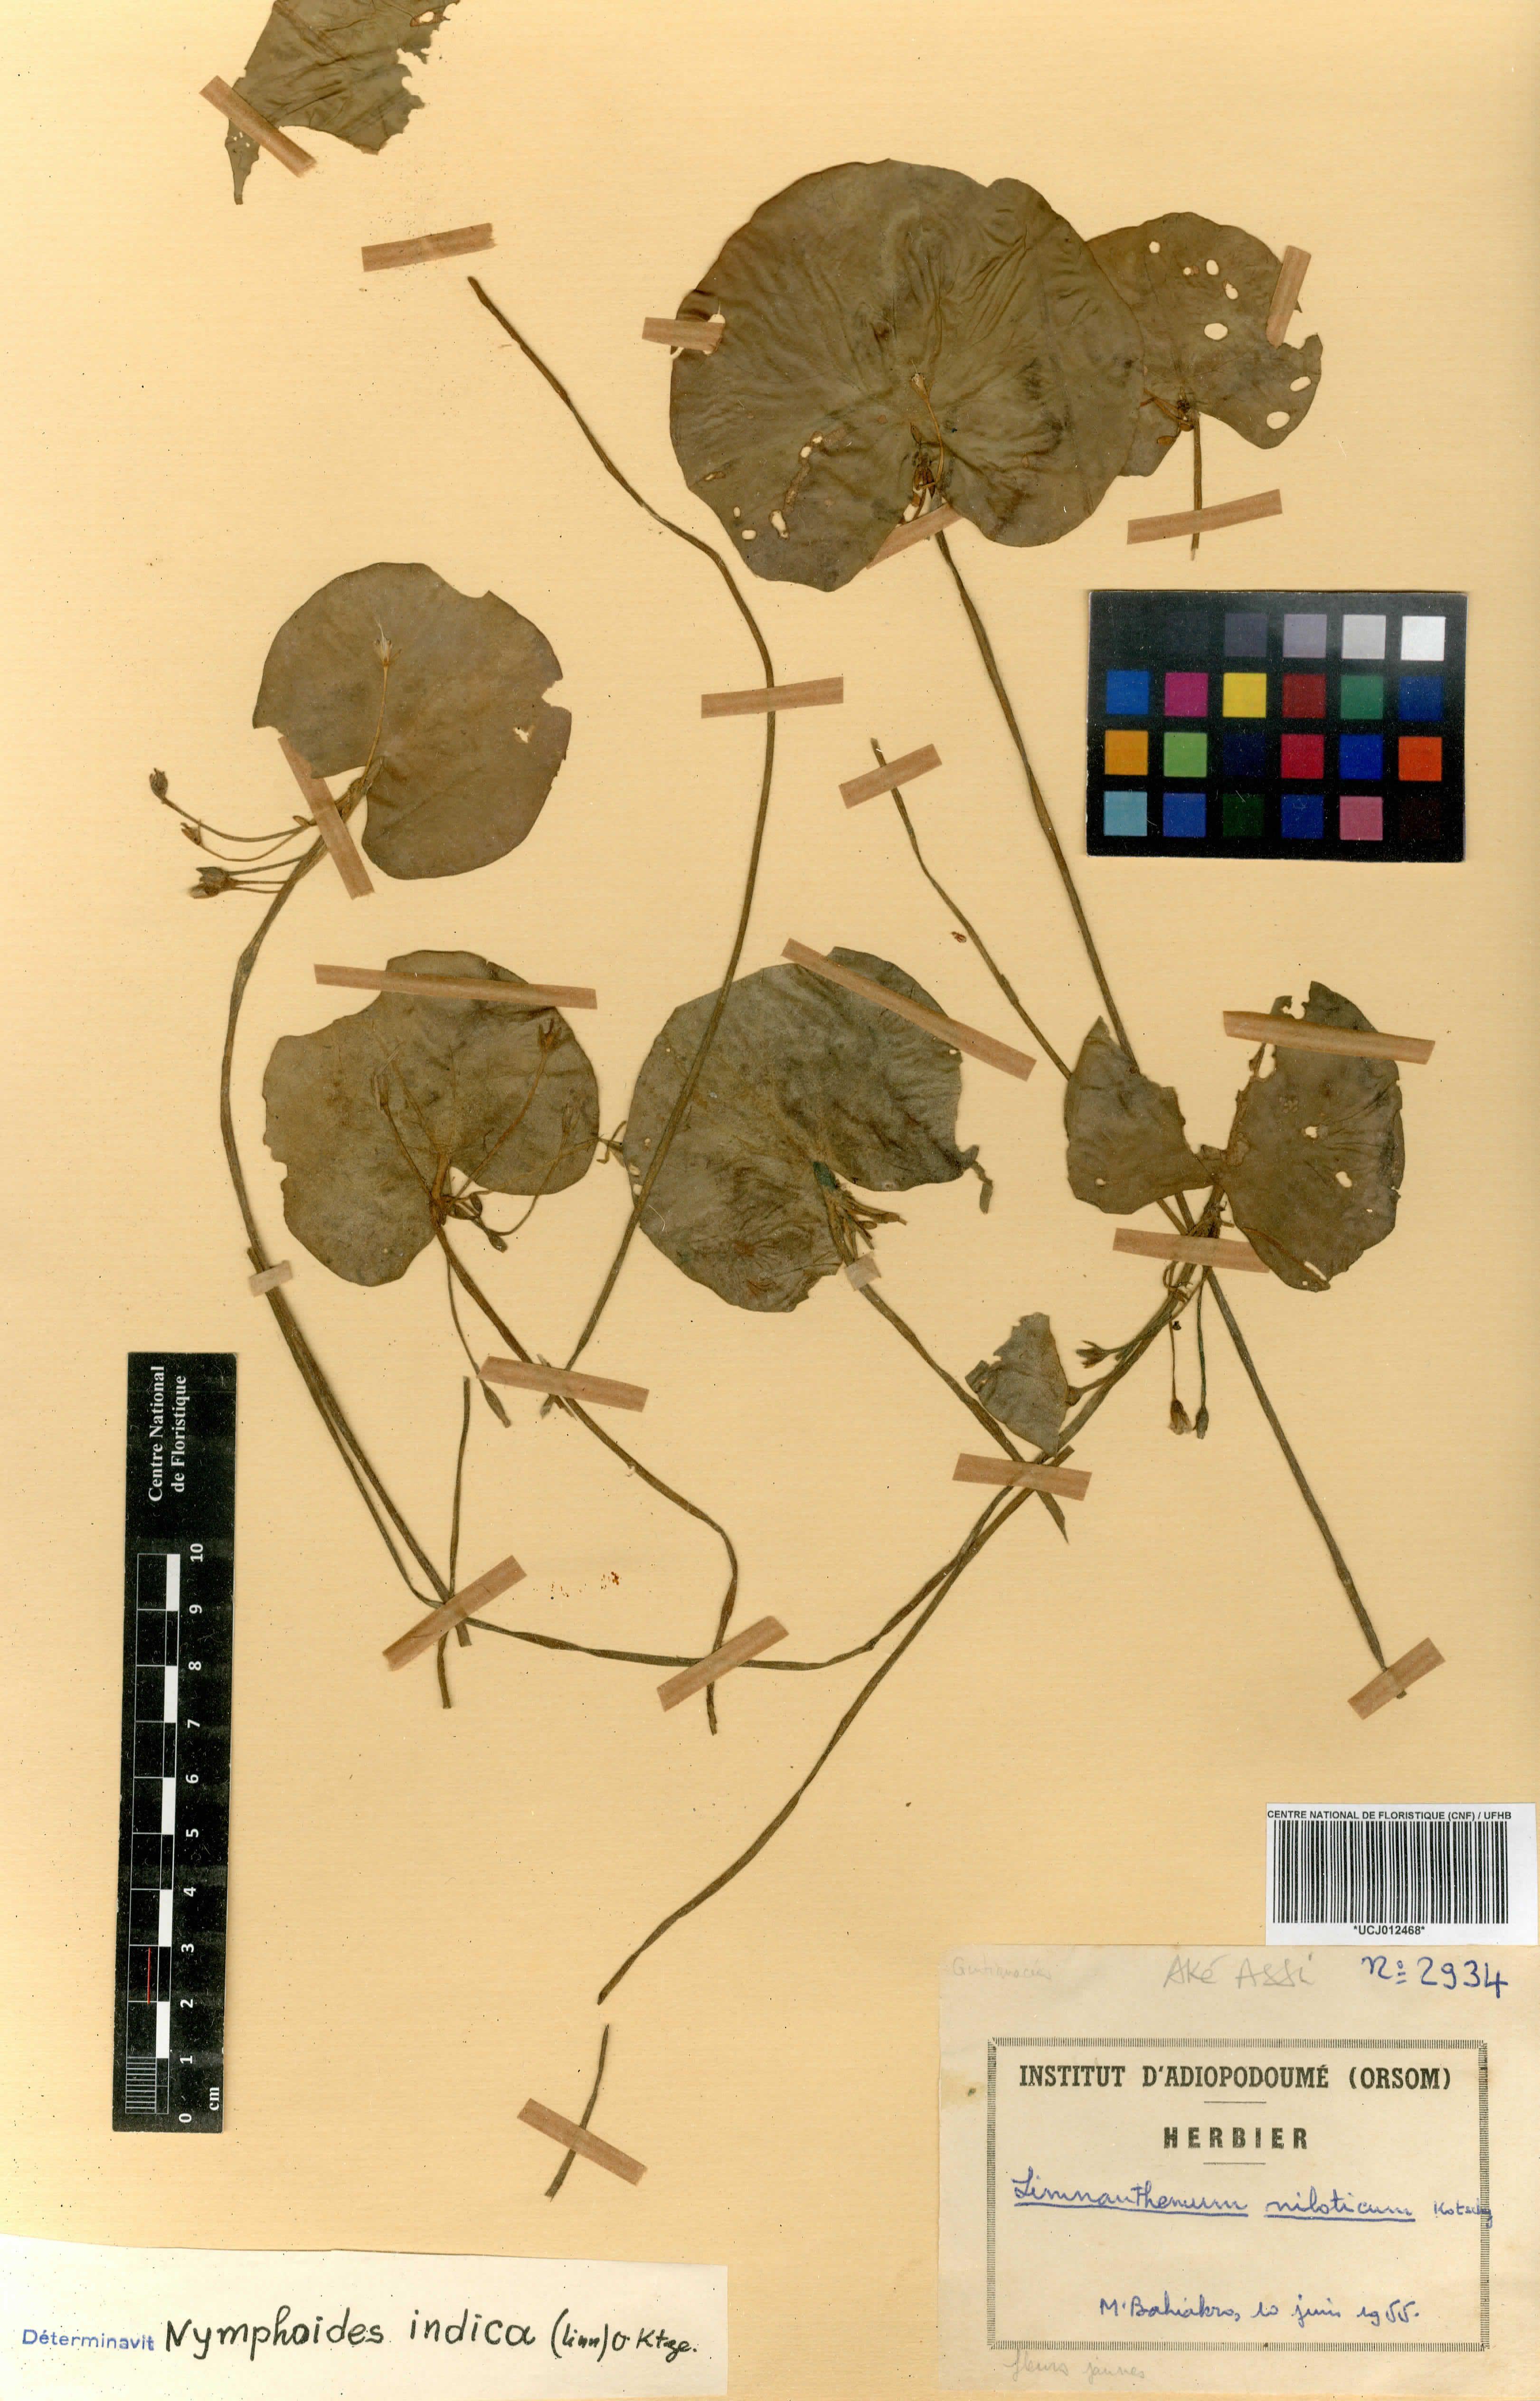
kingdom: Plantae
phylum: Tracheophyta
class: Magnoliopsida
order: Asterales
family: Menyanthaceae
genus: Nymphoides
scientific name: Nymphoides indica
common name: Water-snowflake
